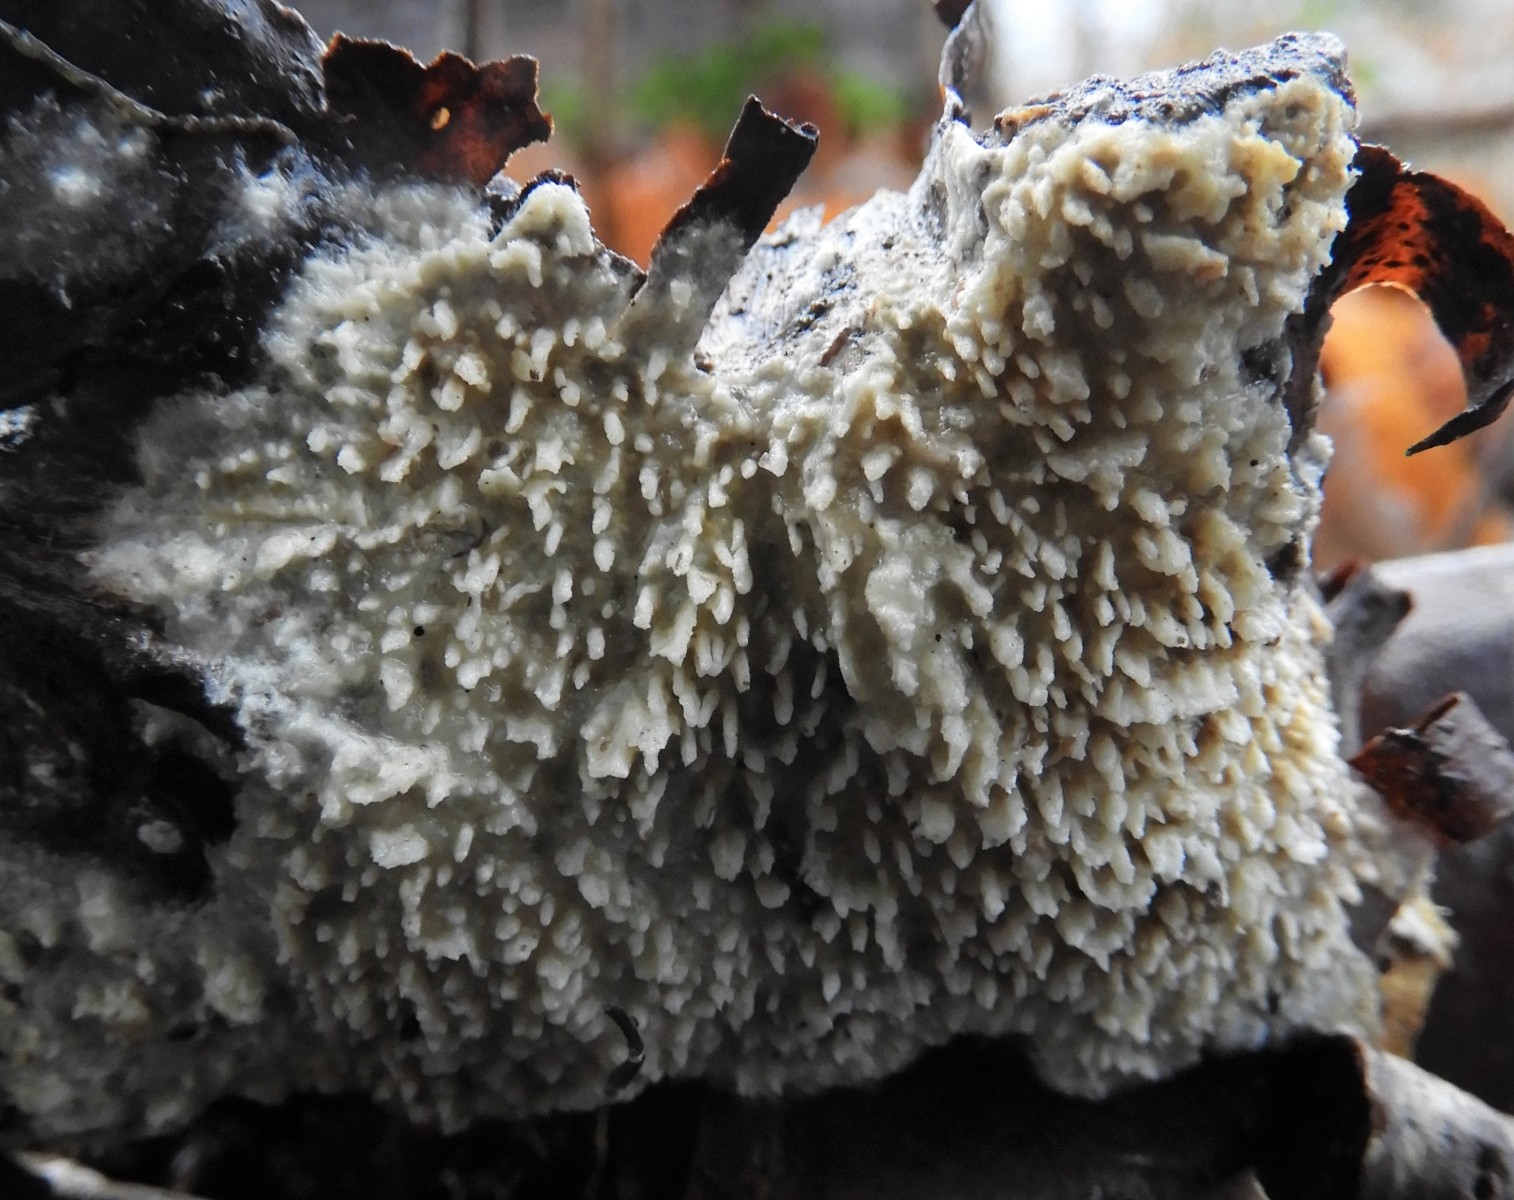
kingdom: Fungi
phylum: Basidiomycota
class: Agaricomycetes
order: Hymenochaetales
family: Schizoporaceae
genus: Xylodon
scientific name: Xylodon radula
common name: grovtandet kalkskind
